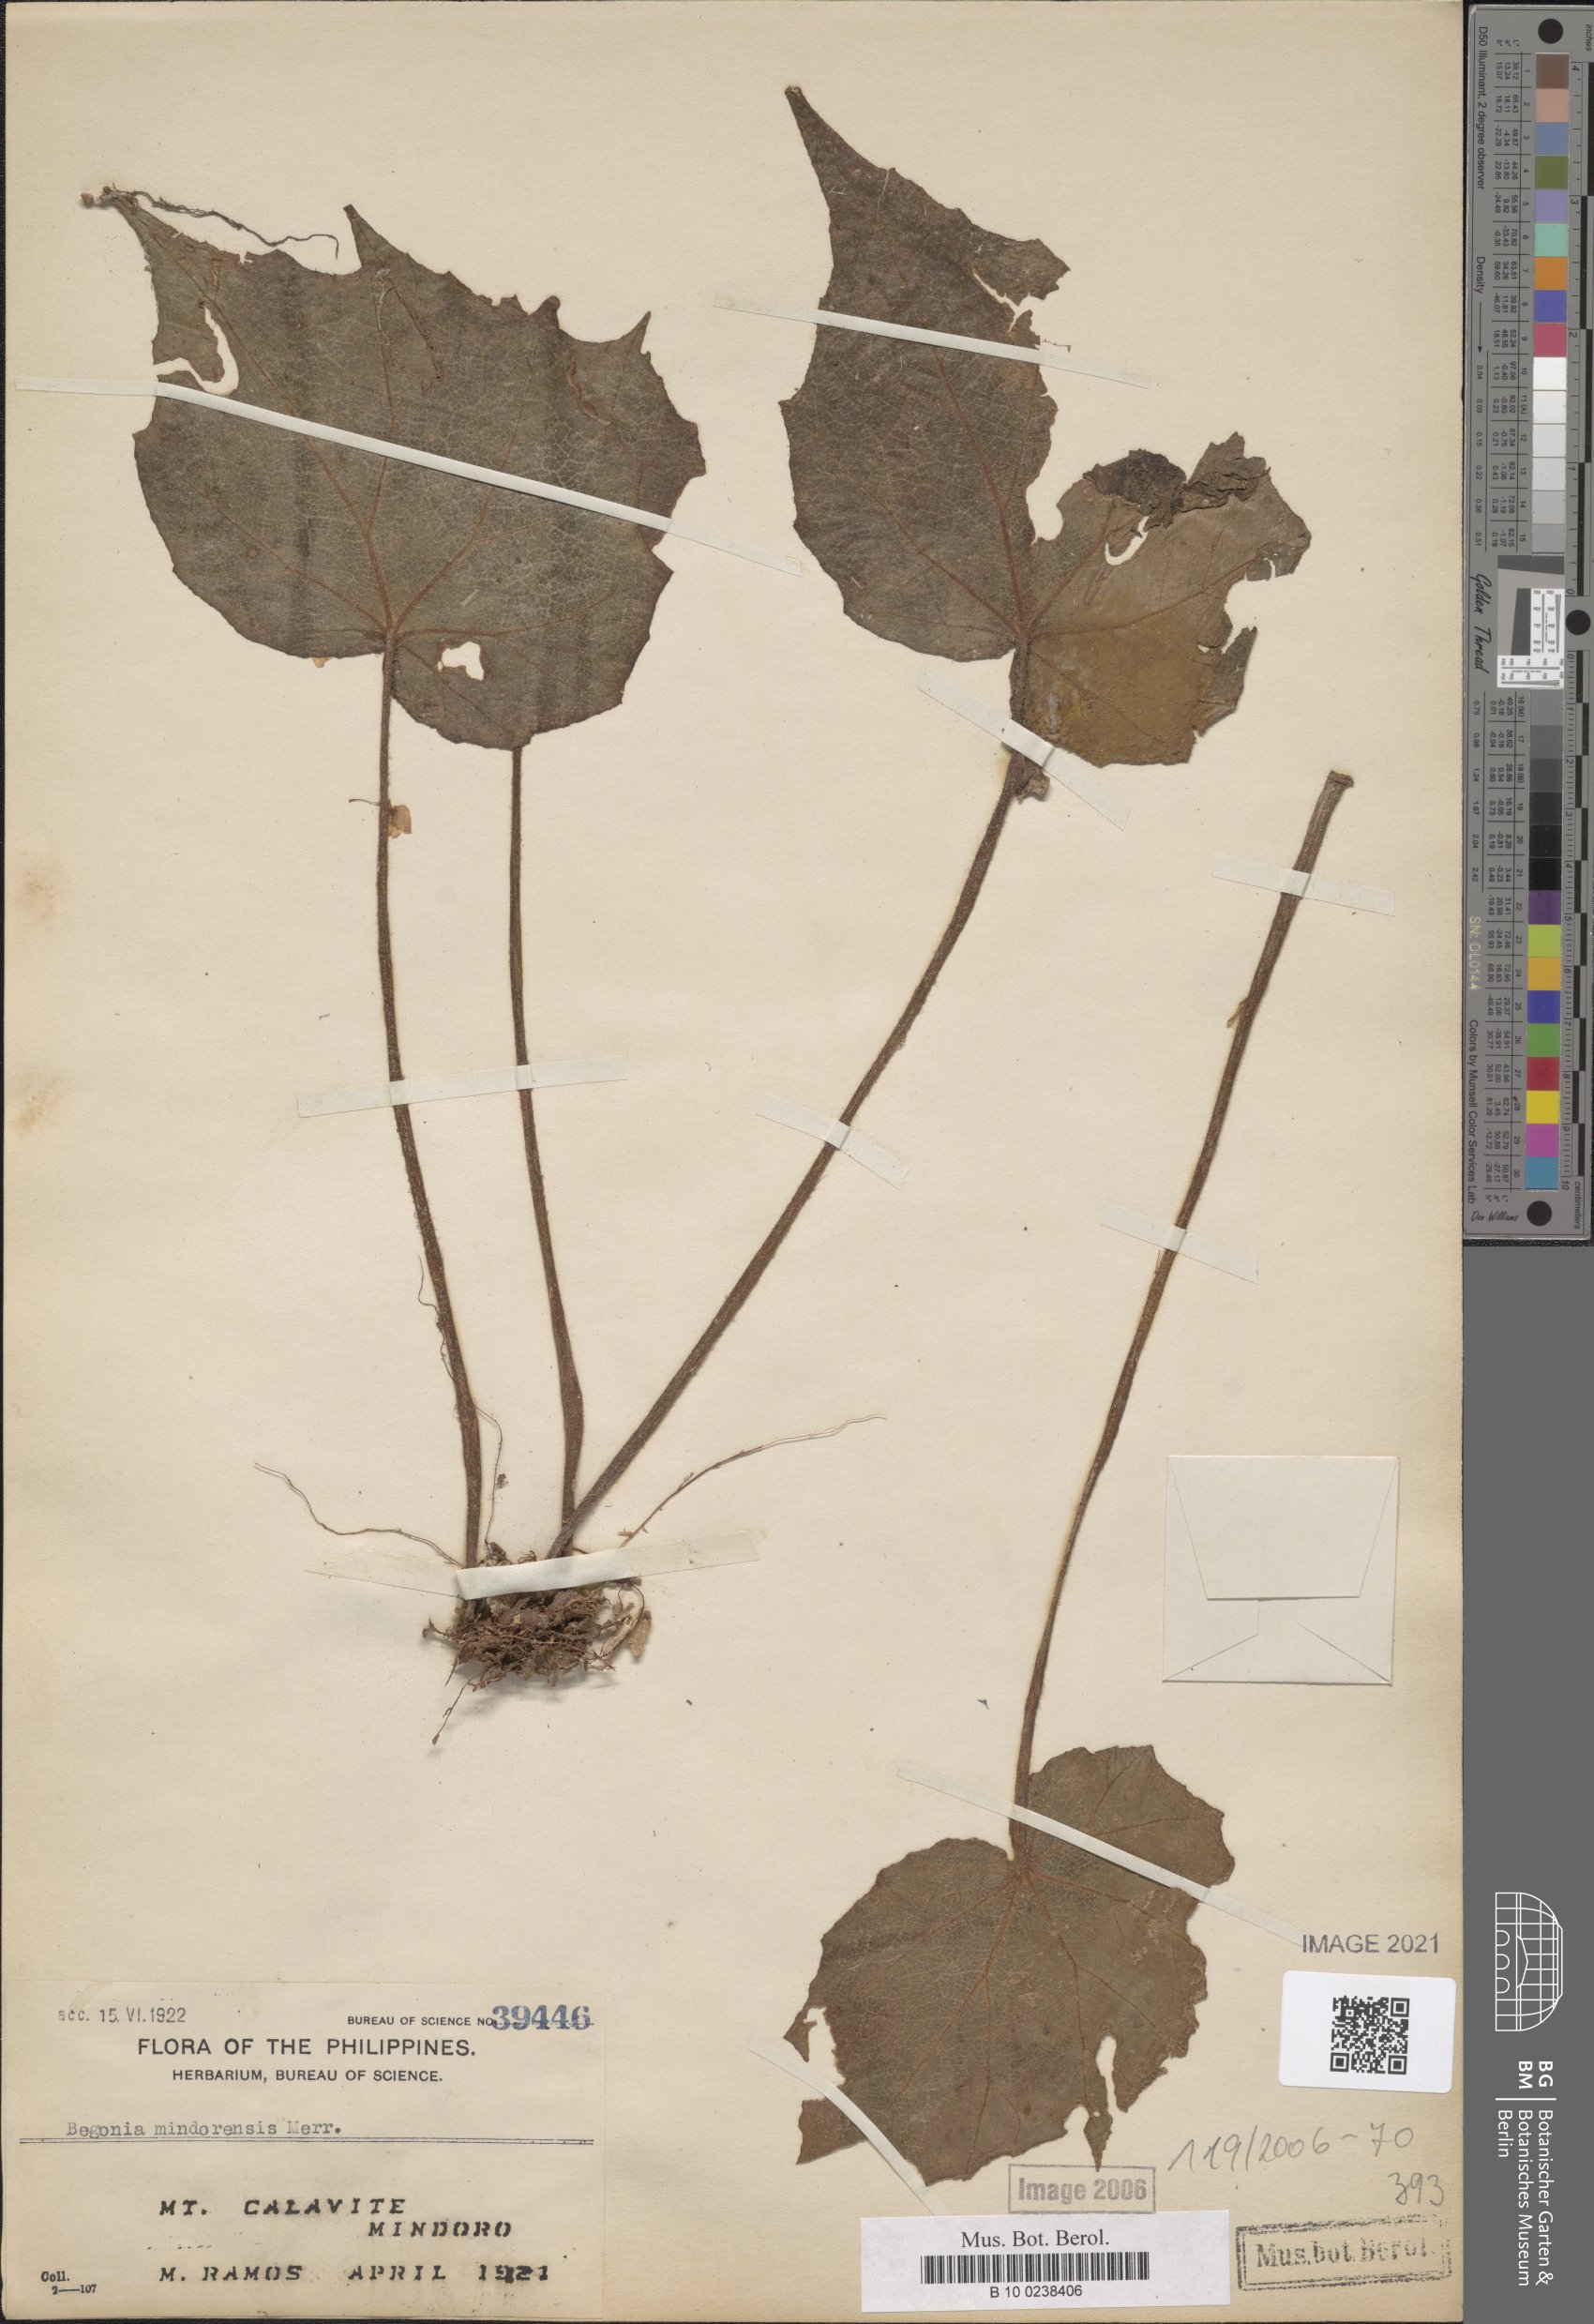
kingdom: Plantae
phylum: Tracheophyta
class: Magnoliopsida
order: Cucurbitales
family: Begoniaceae
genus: Begonia
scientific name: Begonia mindorensis
